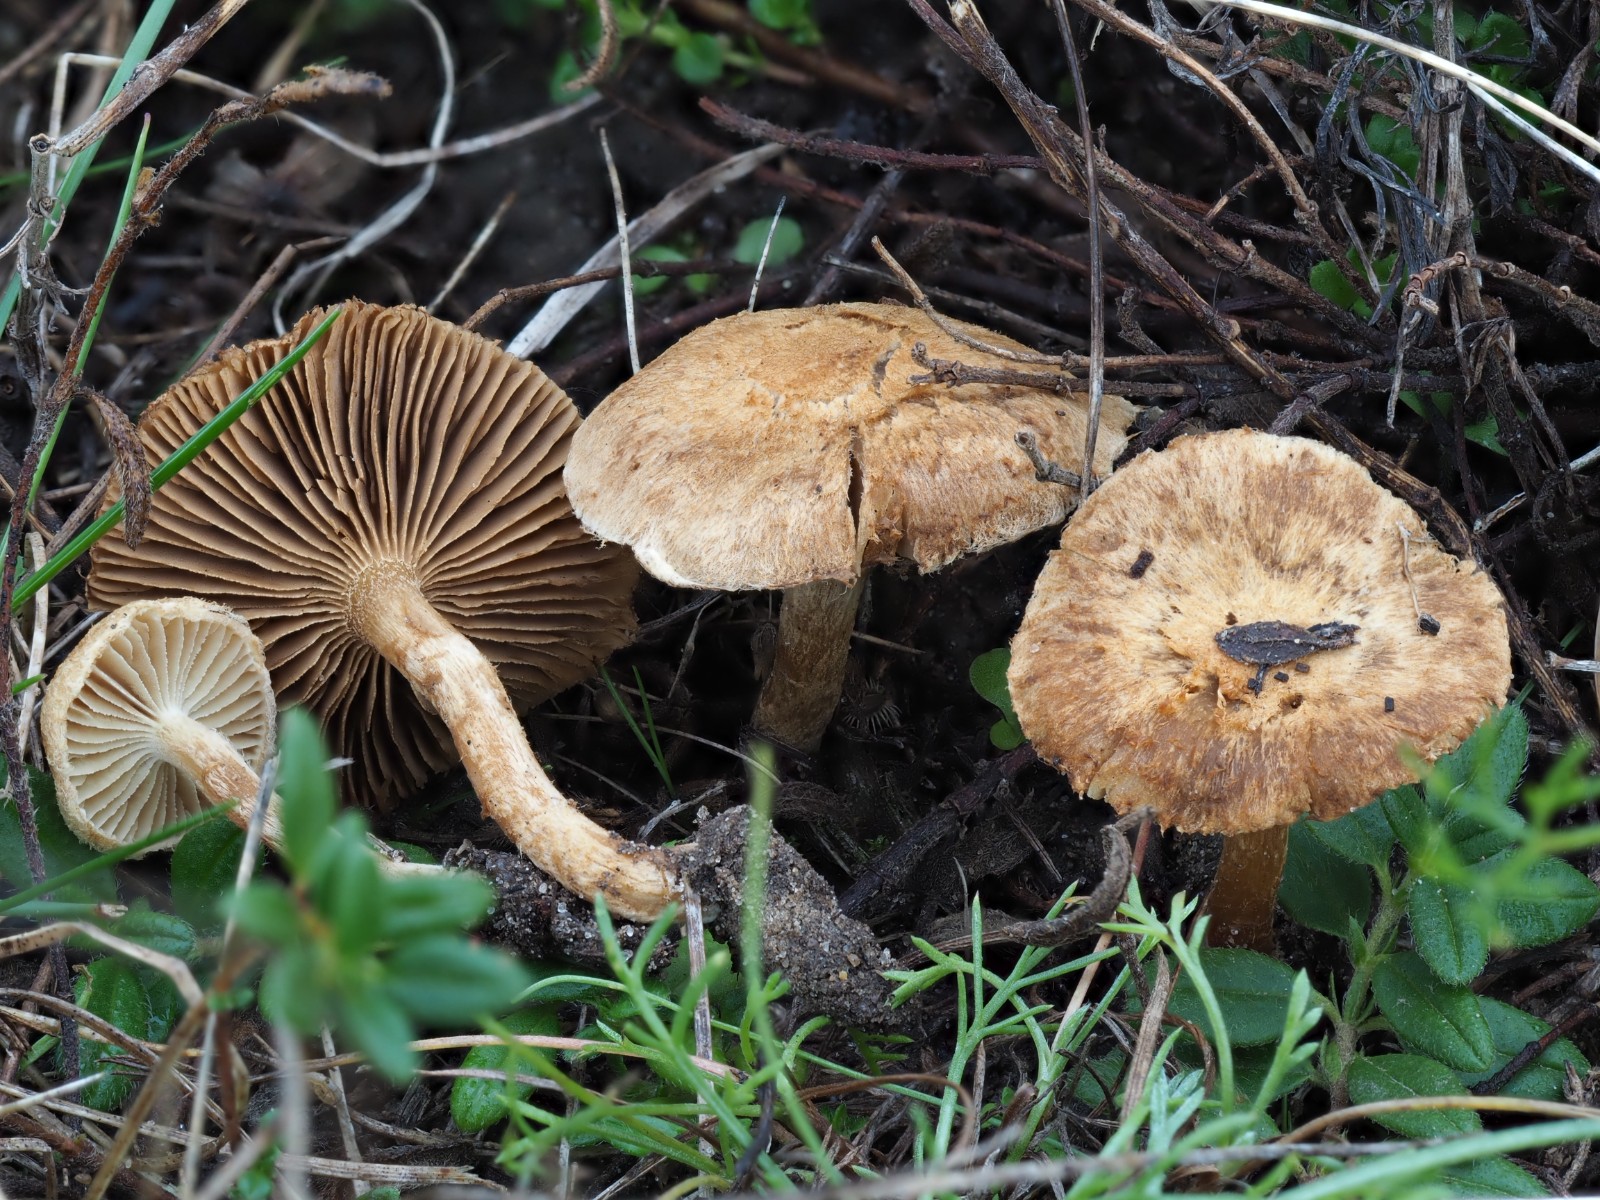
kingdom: Fungi
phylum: Basidiomycota
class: Agaricomycetes
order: Agaricales
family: Inocybaceae
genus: Mallocybe
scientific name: Mallocybe malenconii
